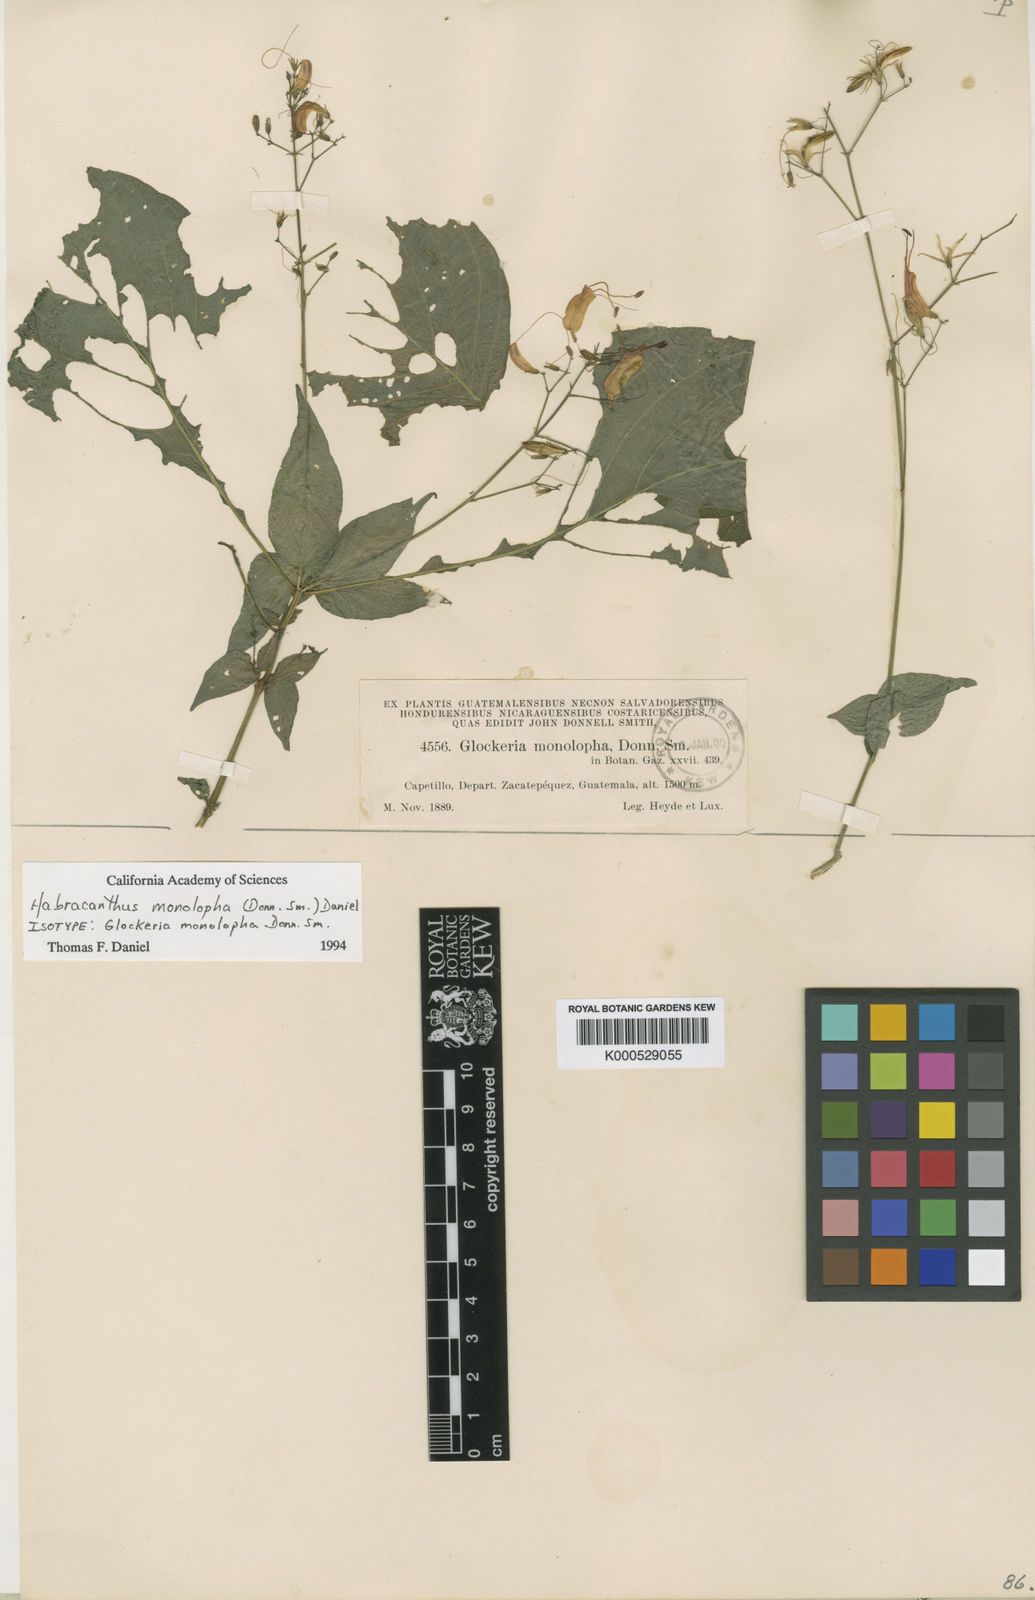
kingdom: Plantae
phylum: Tracheophyta
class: Magnoliopsida
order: Lamiales
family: Acanthaceae
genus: Stenostephanus
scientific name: Stenostephanus monolophus
